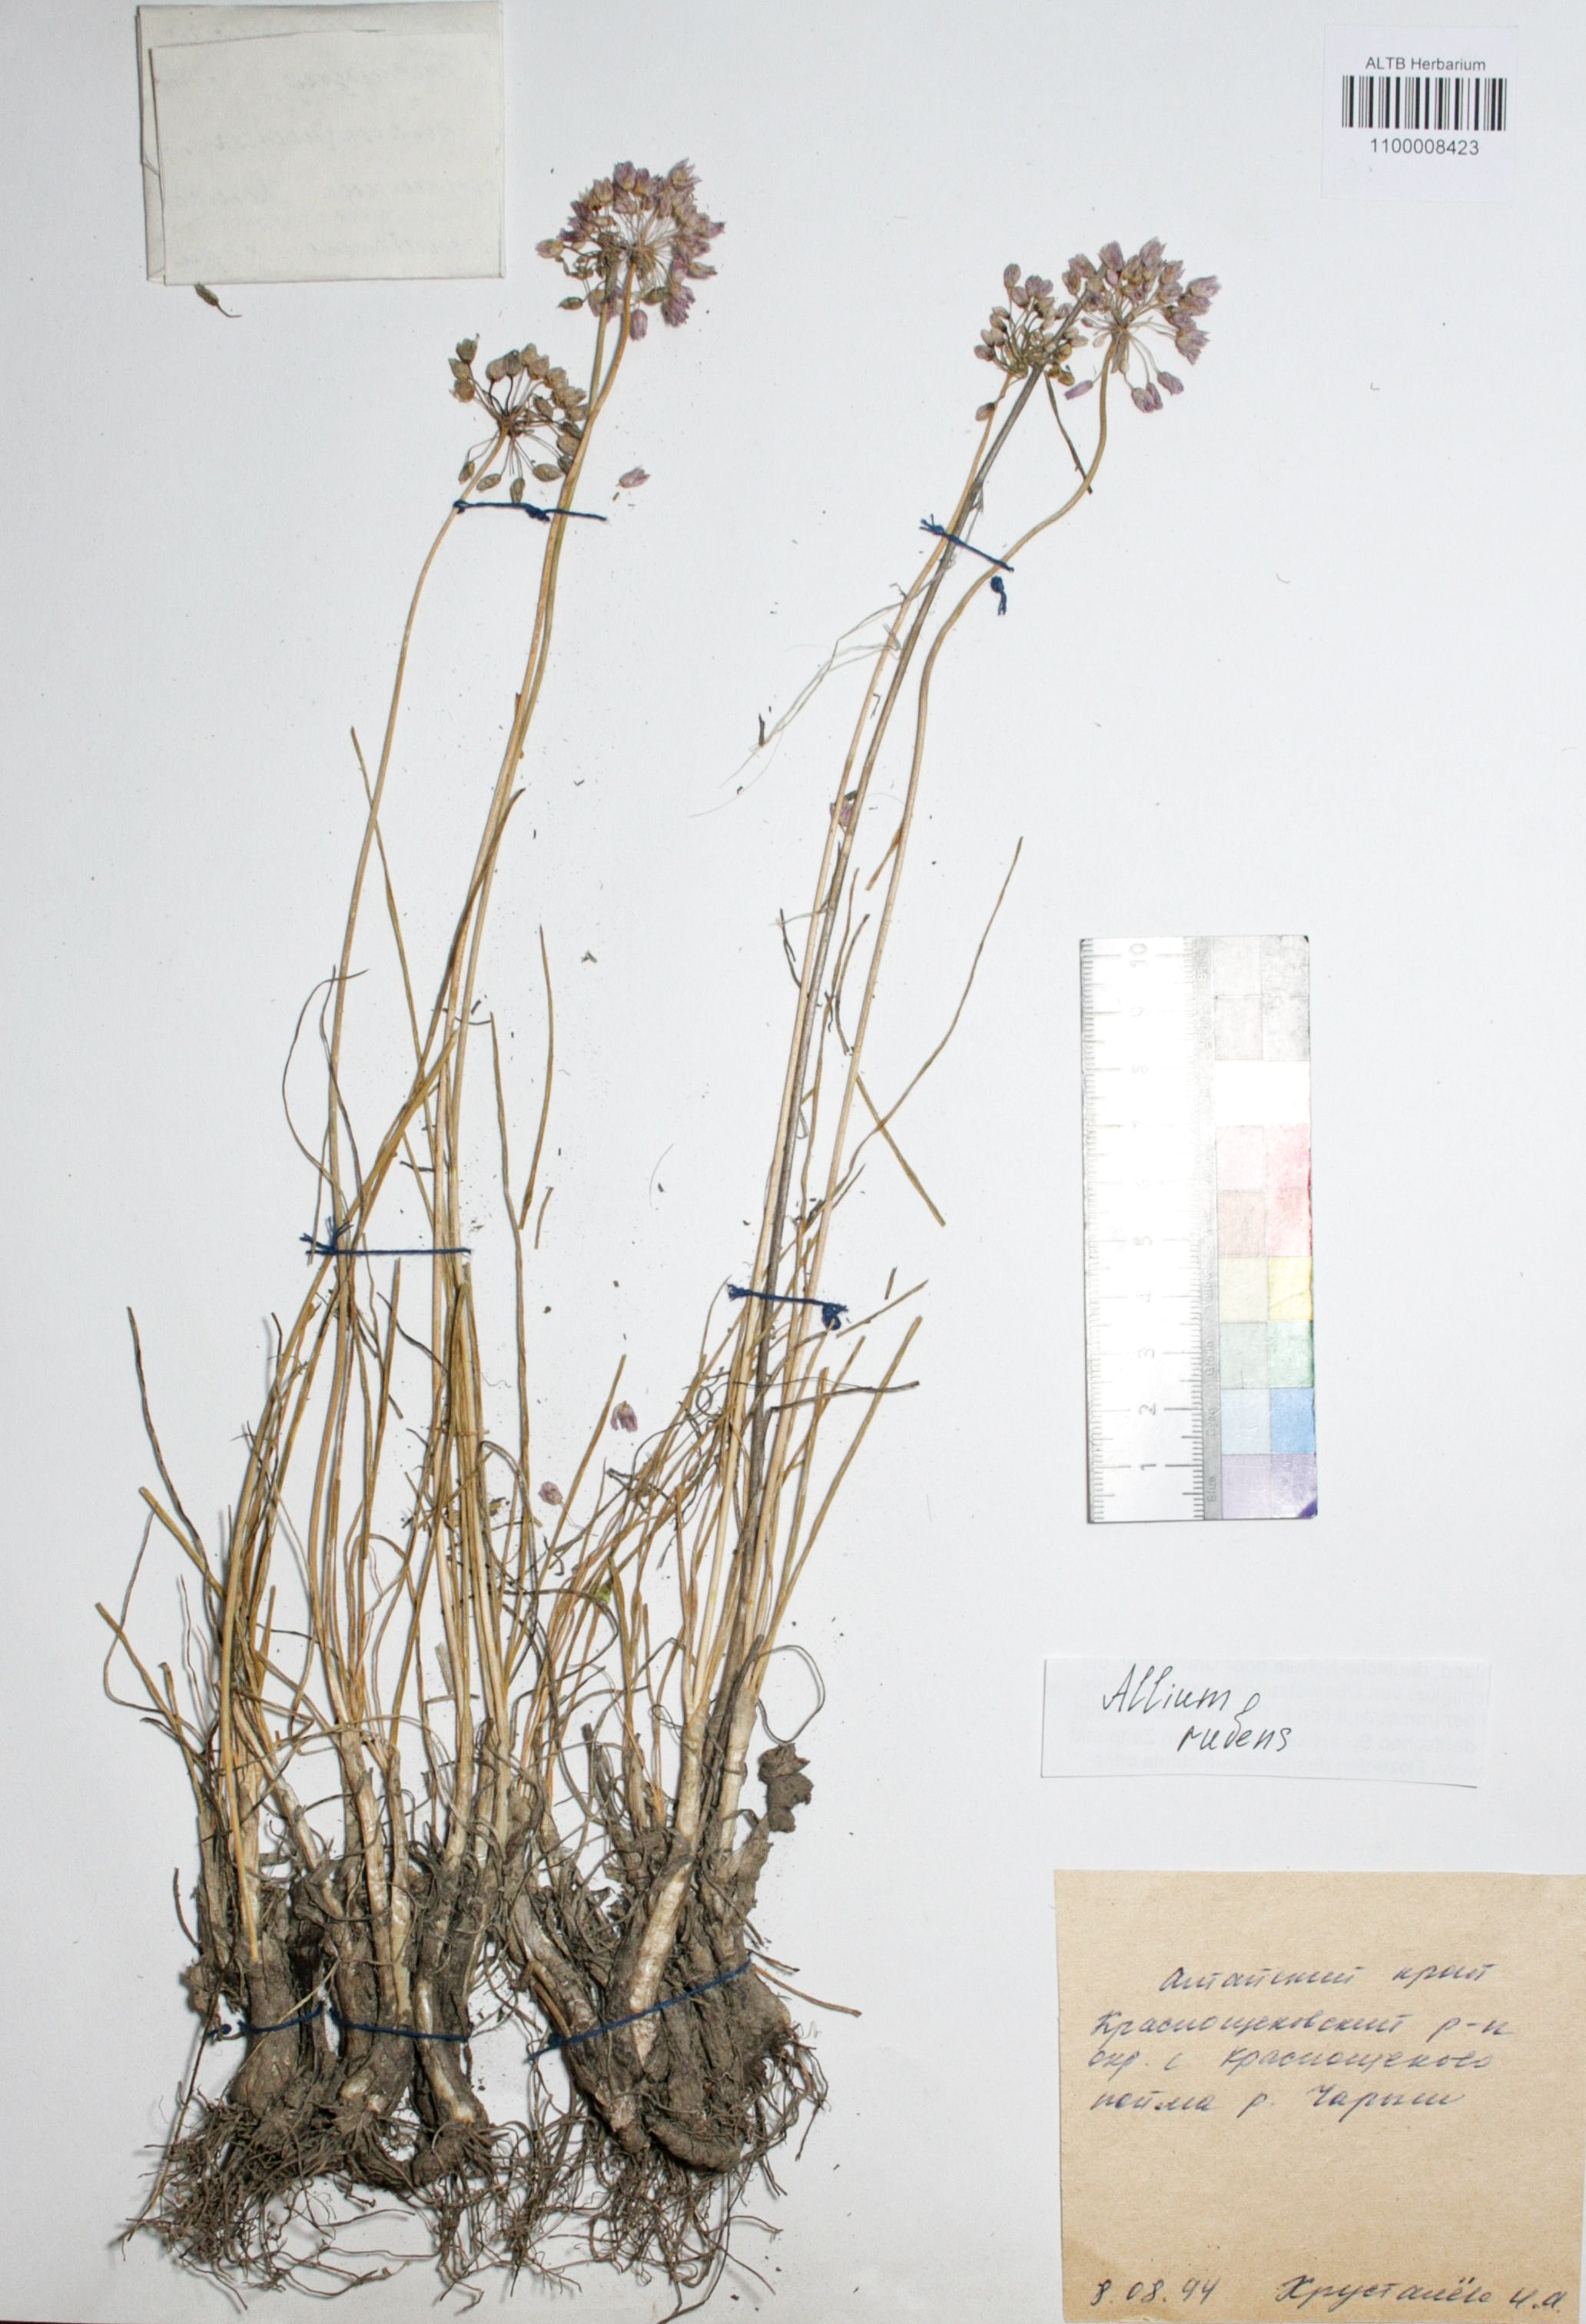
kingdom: Plantae
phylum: Tracheophyta
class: Liliopsida
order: Asparagales
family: Amaryllidaceae
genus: Allium
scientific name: Allium rubens
